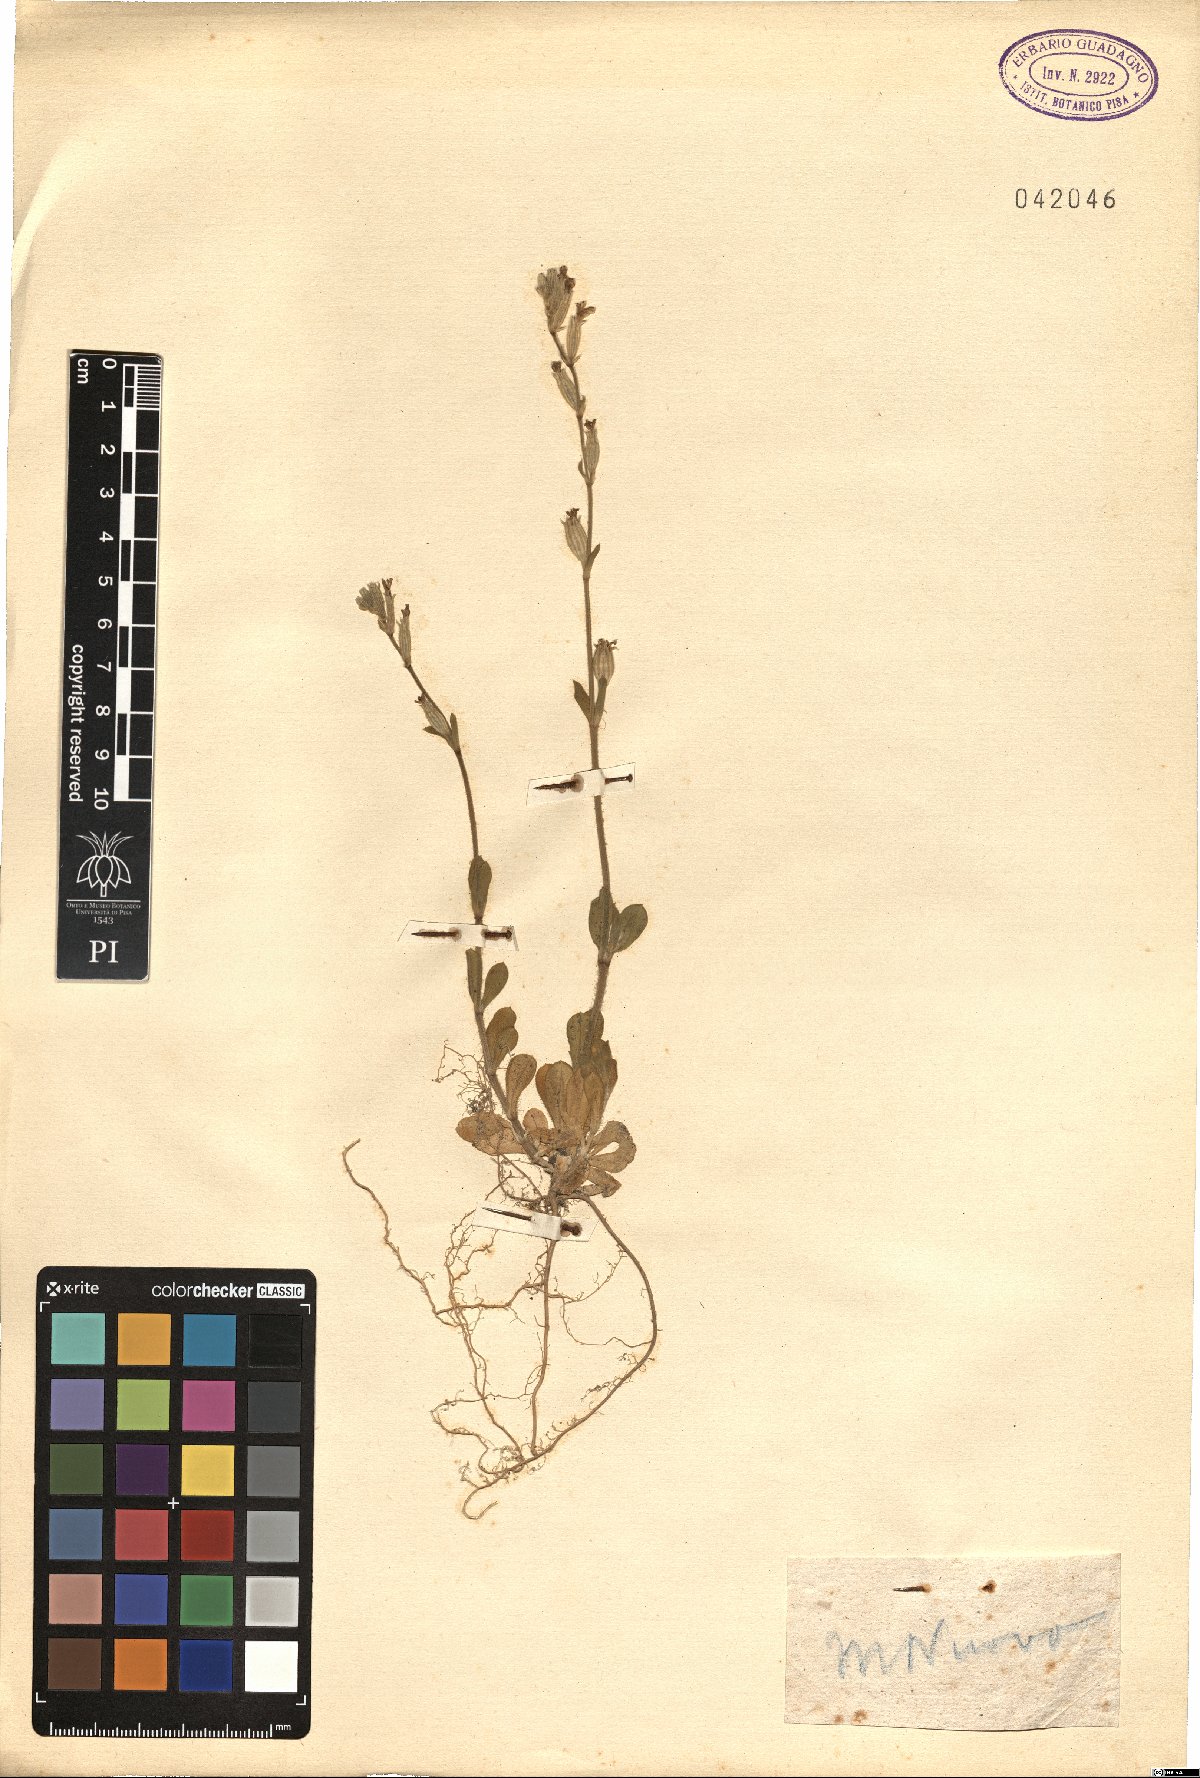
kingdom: Plantae
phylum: Tracheophyta
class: Magnoliopsida
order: Caryophyllales
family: Caryophyllaceae
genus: Silene
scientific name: Silene
